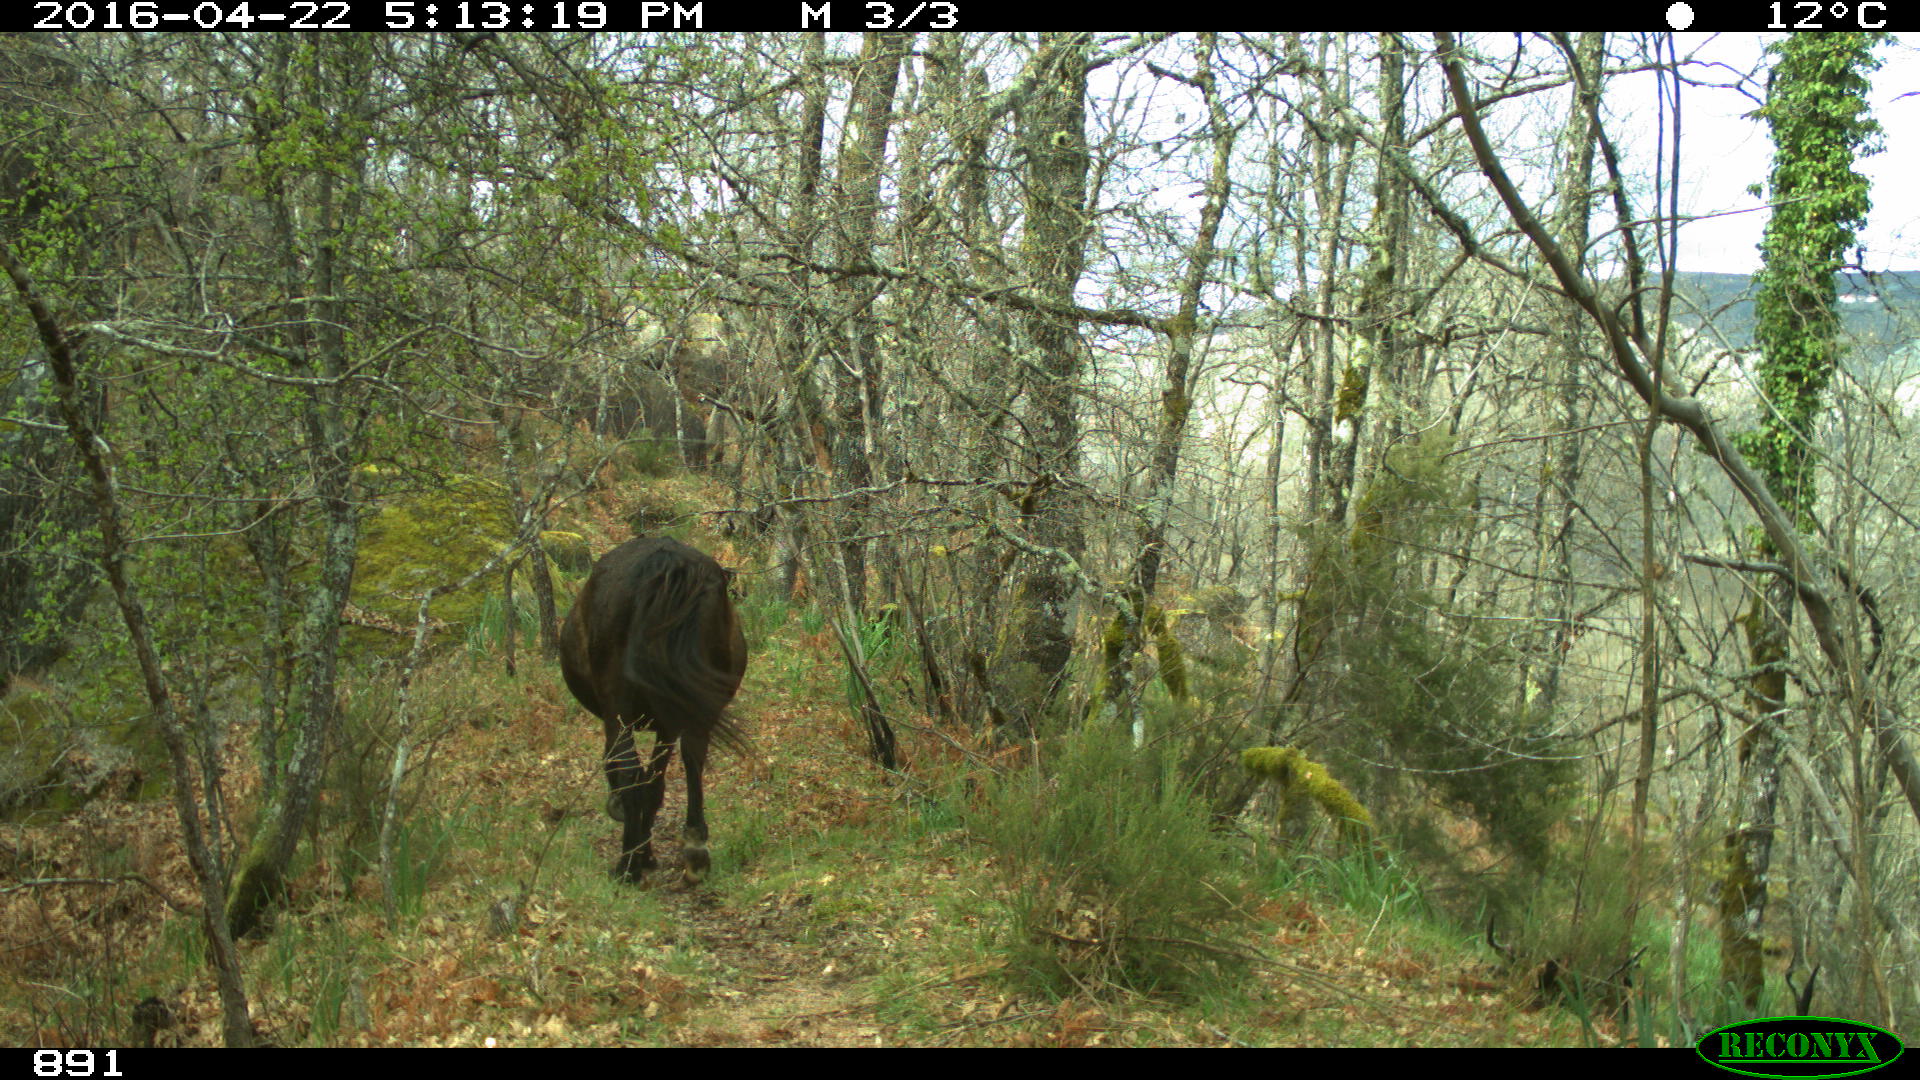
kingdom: Animalia
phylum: Chordata
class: Mammalia
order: Perissodactyla
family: Equidae
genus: Equus
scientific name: Equus caballus
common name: Horse
